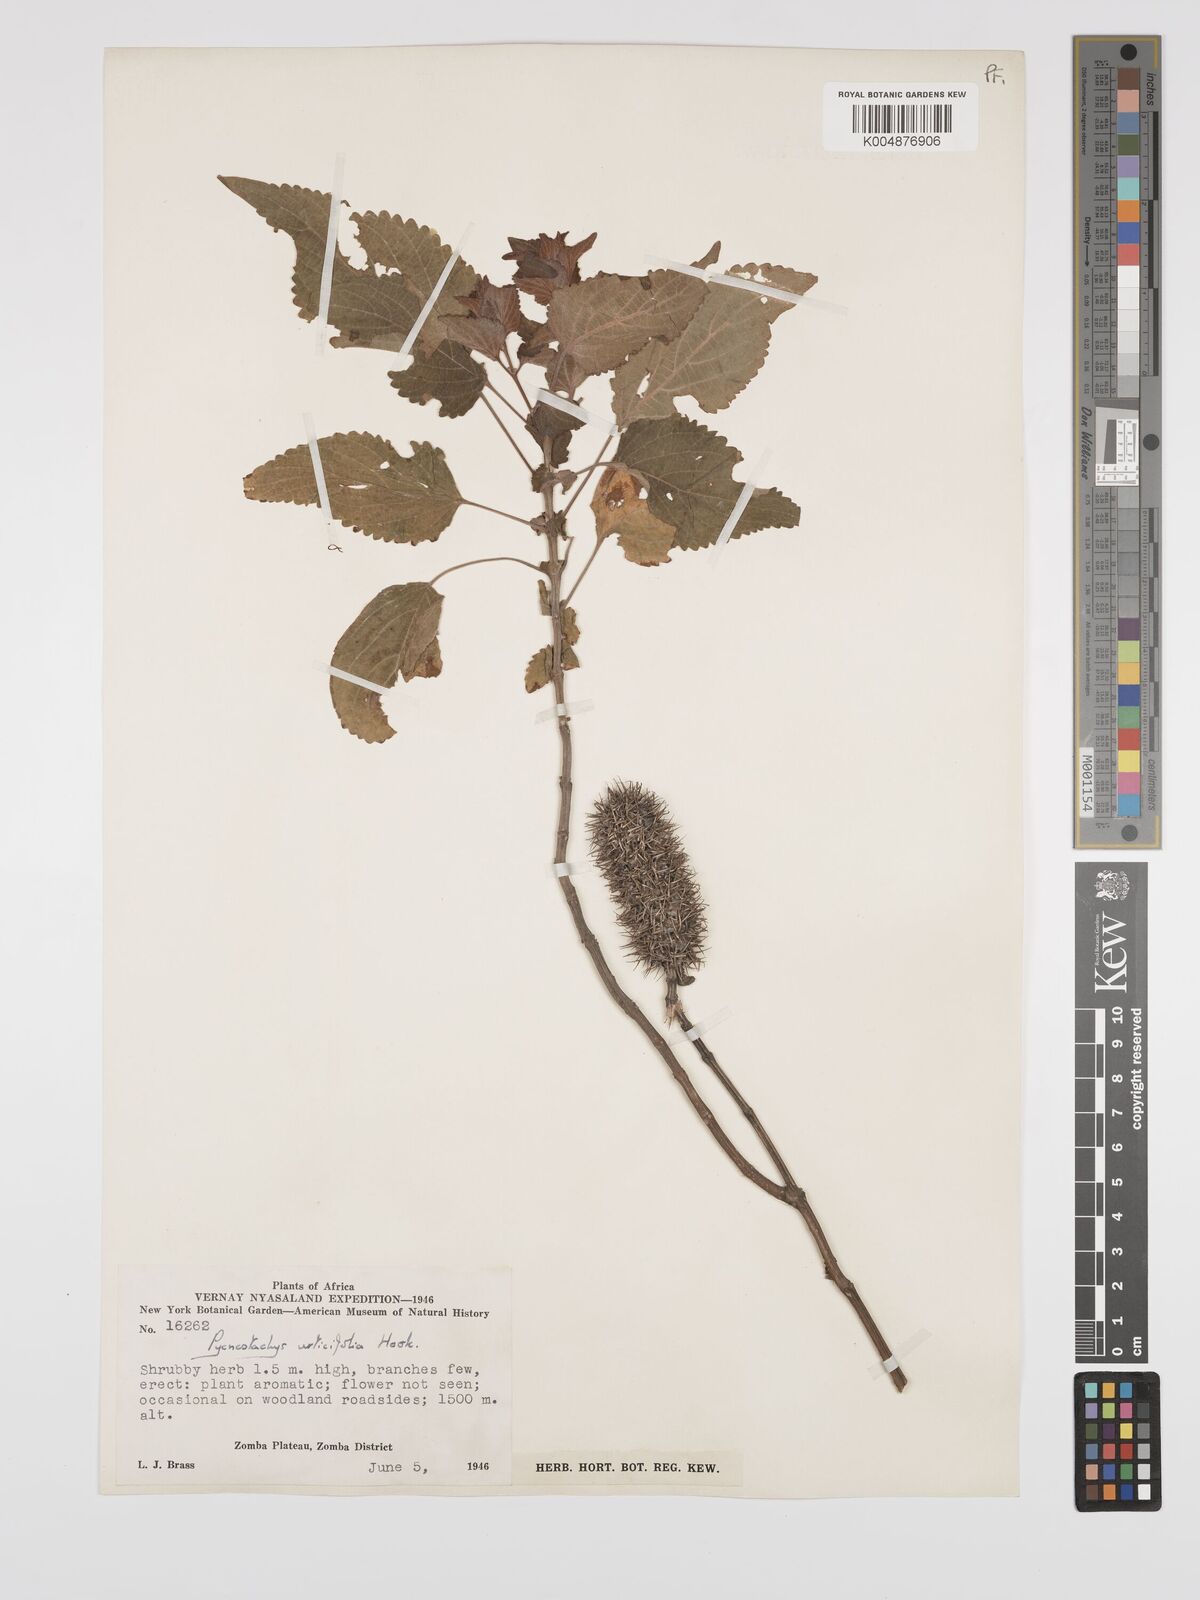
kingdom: Plantae
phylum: Tracheophyta
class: Magnoliopsida
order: Lamiales
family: Lamiaceae
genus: Coleus
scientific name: Coleus livingstonei
